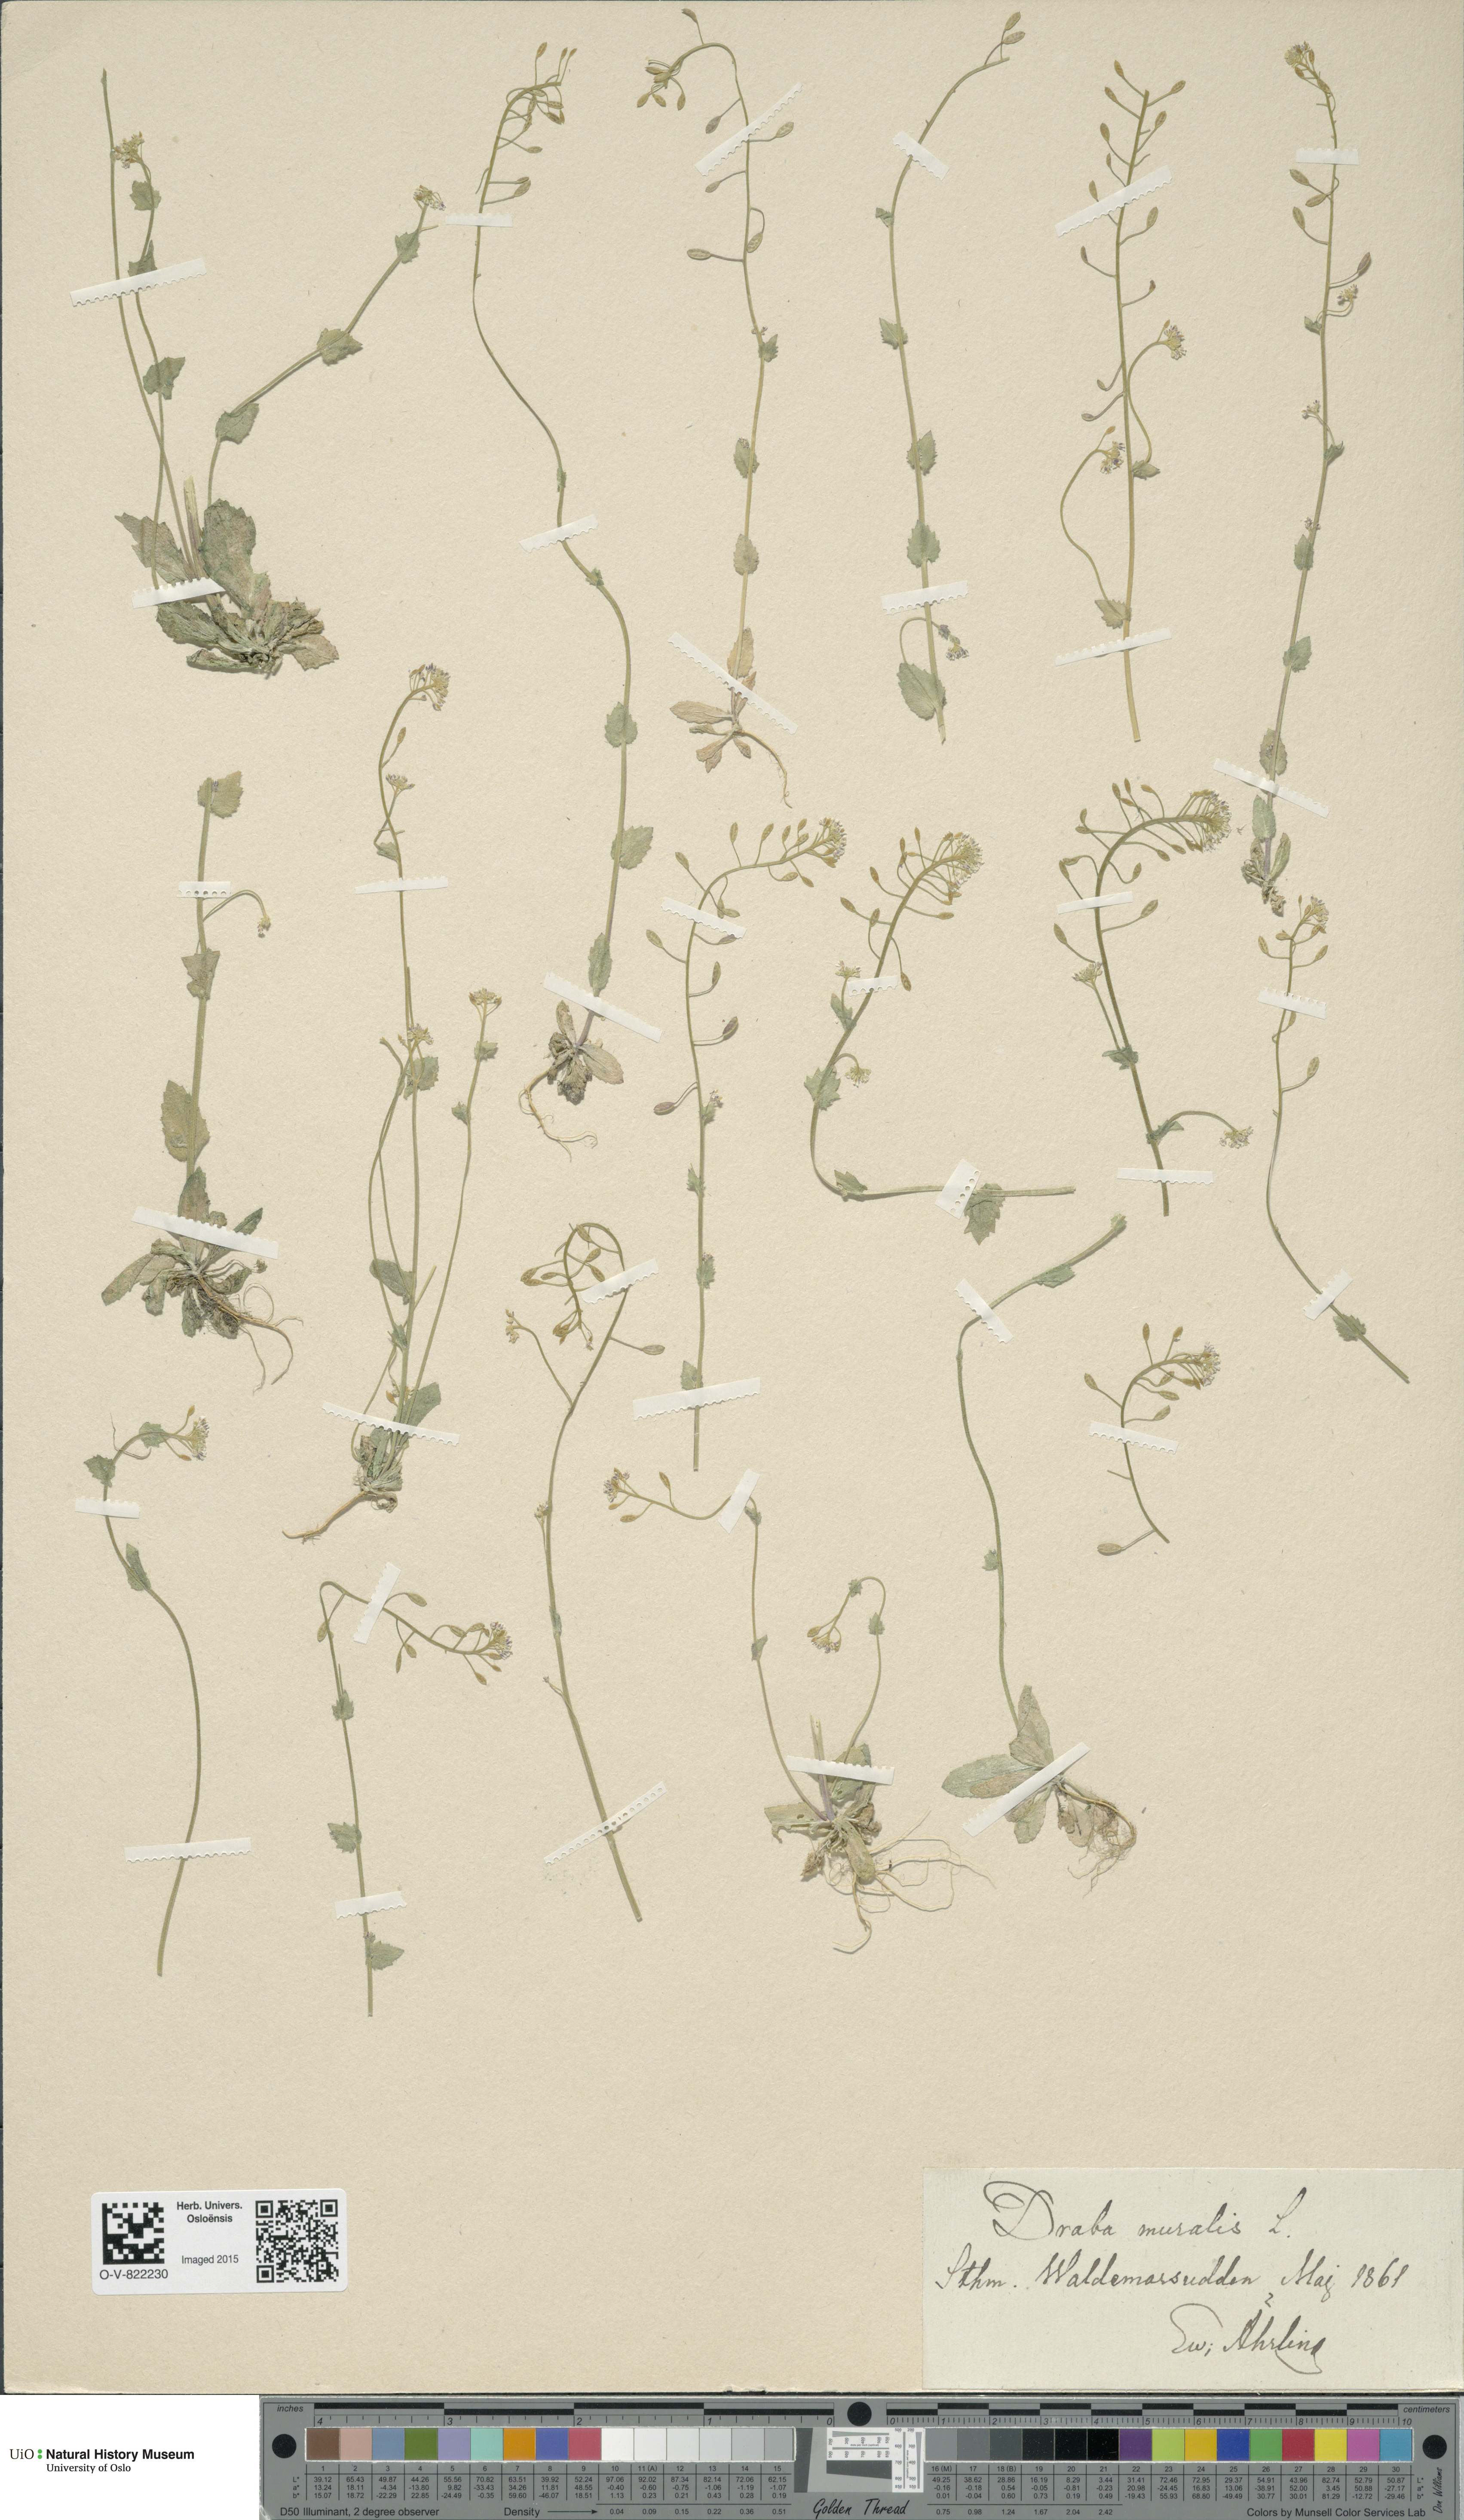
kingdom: Plantae
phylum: Tracheophyta
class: Magnoliopsida
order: Brassicales
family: Brassicaceae
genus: Drabella
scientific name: Drabella muralis
